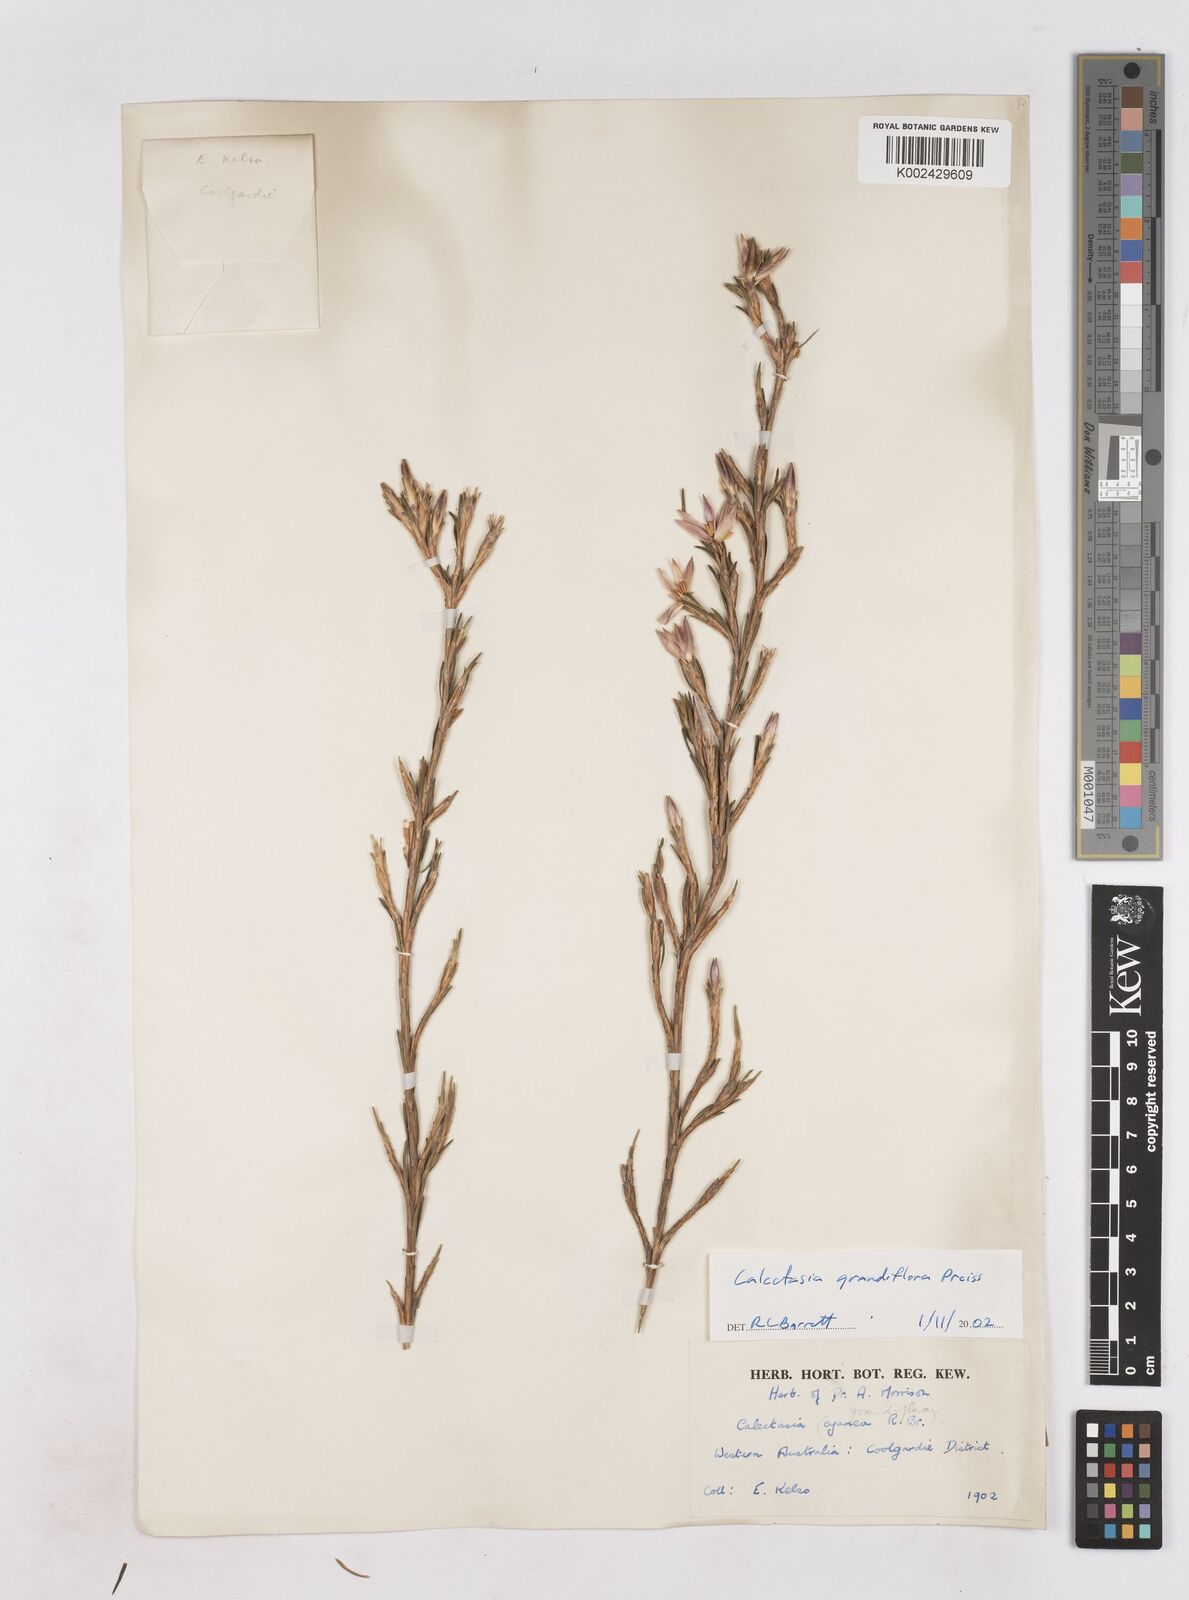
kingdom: Plantae
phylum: Tracheophyta
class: Liliopsida
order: Arecales
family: Dasypogonaceae
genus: Calectasia
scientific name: Calectasia grandiflora
